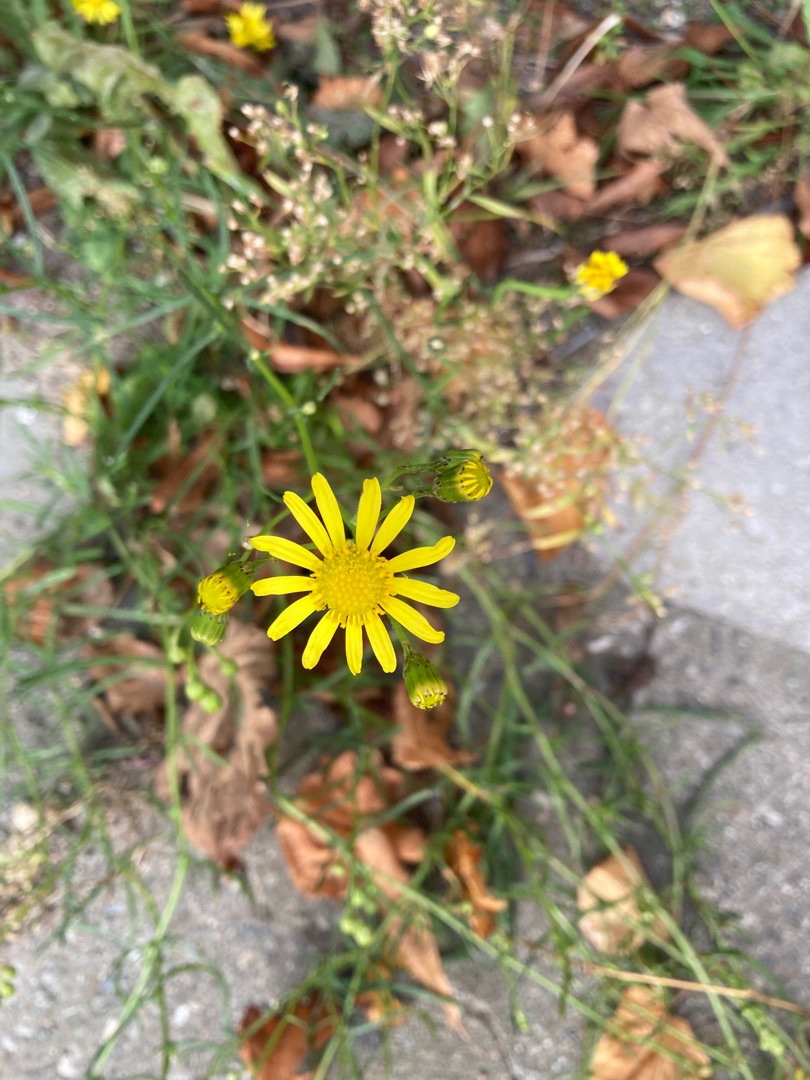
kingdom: Plantae
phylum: Tracheophyta
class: Magnoliopsida
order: Asterales
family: Asteraceae
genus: Senecio
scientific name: Senecio inaequidens
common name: Smalbladet brandbæger
